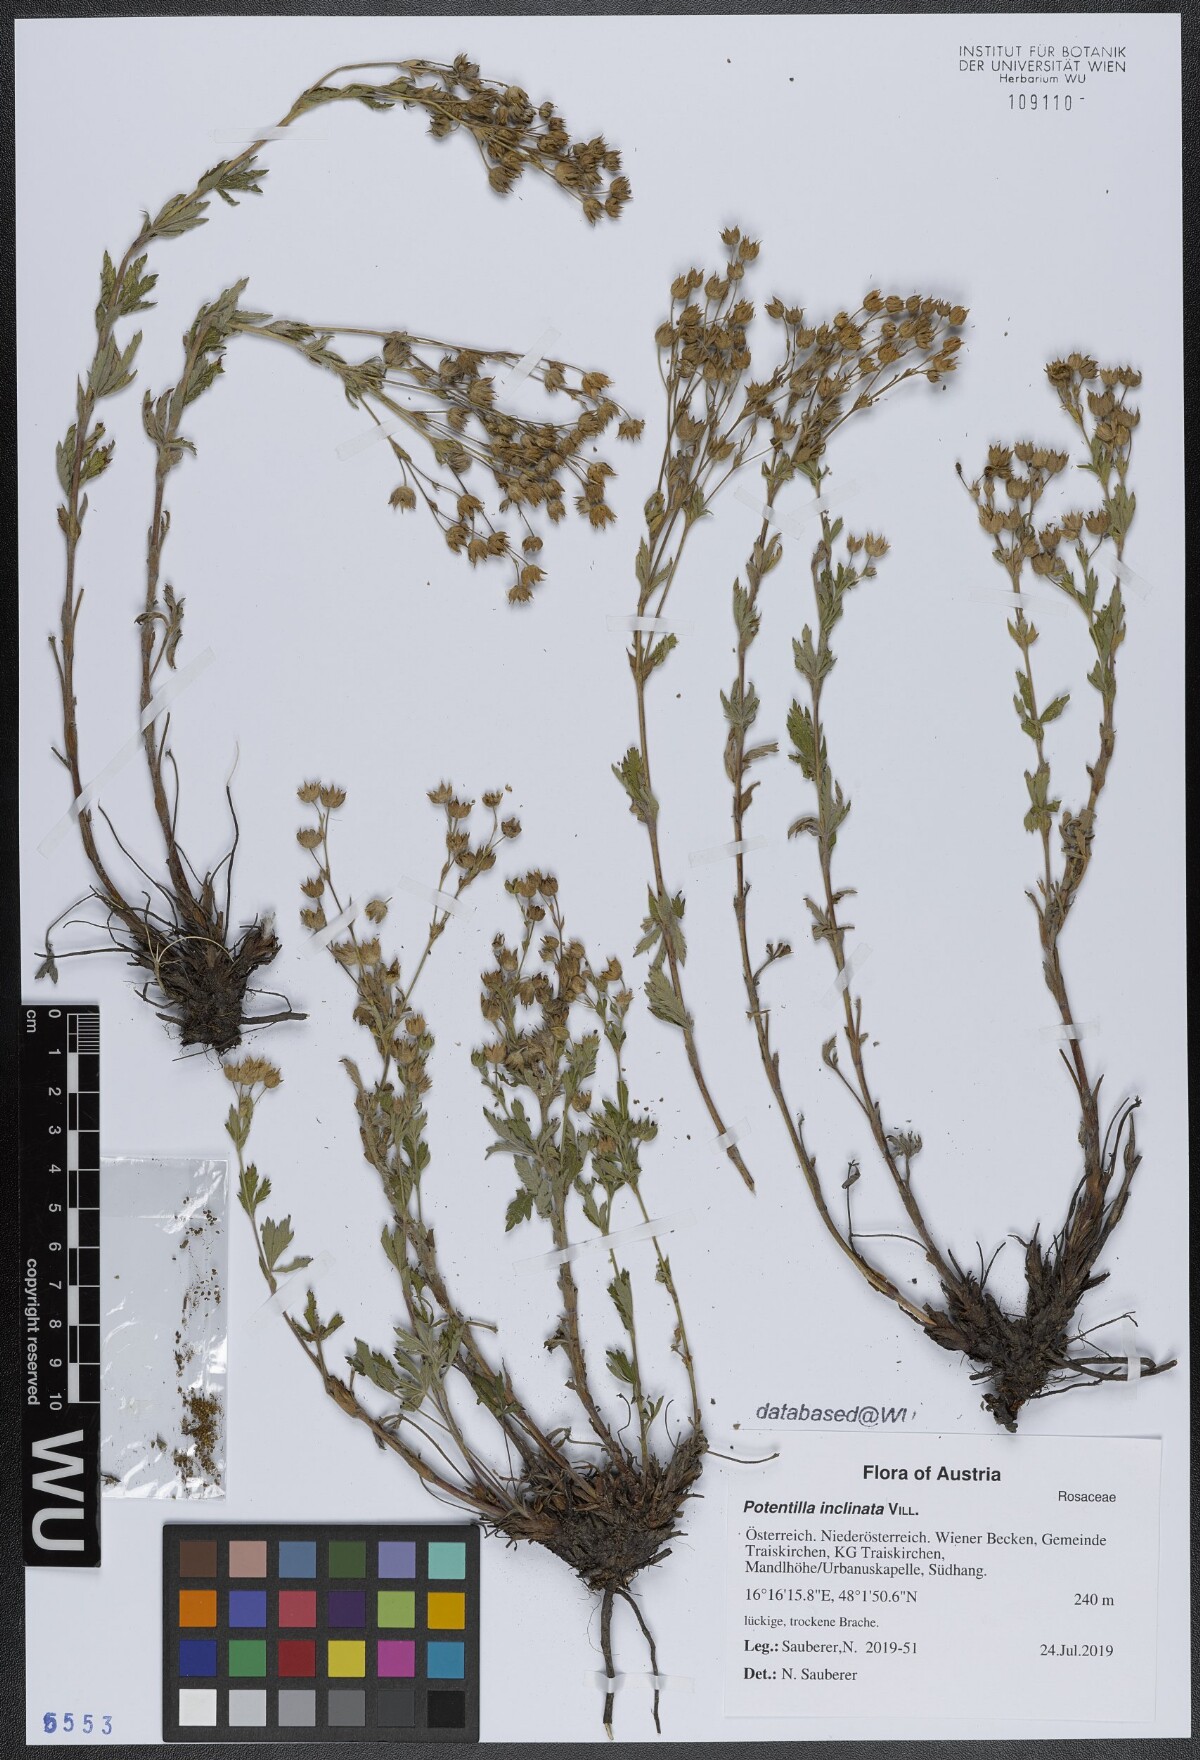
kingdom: Plantae
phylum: Tracheophyta
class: Magnoliopsida
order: Rosales
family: Rosaceae
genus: Potentilla
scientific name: Potentilla inclinata
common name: Grey cinquefoil
